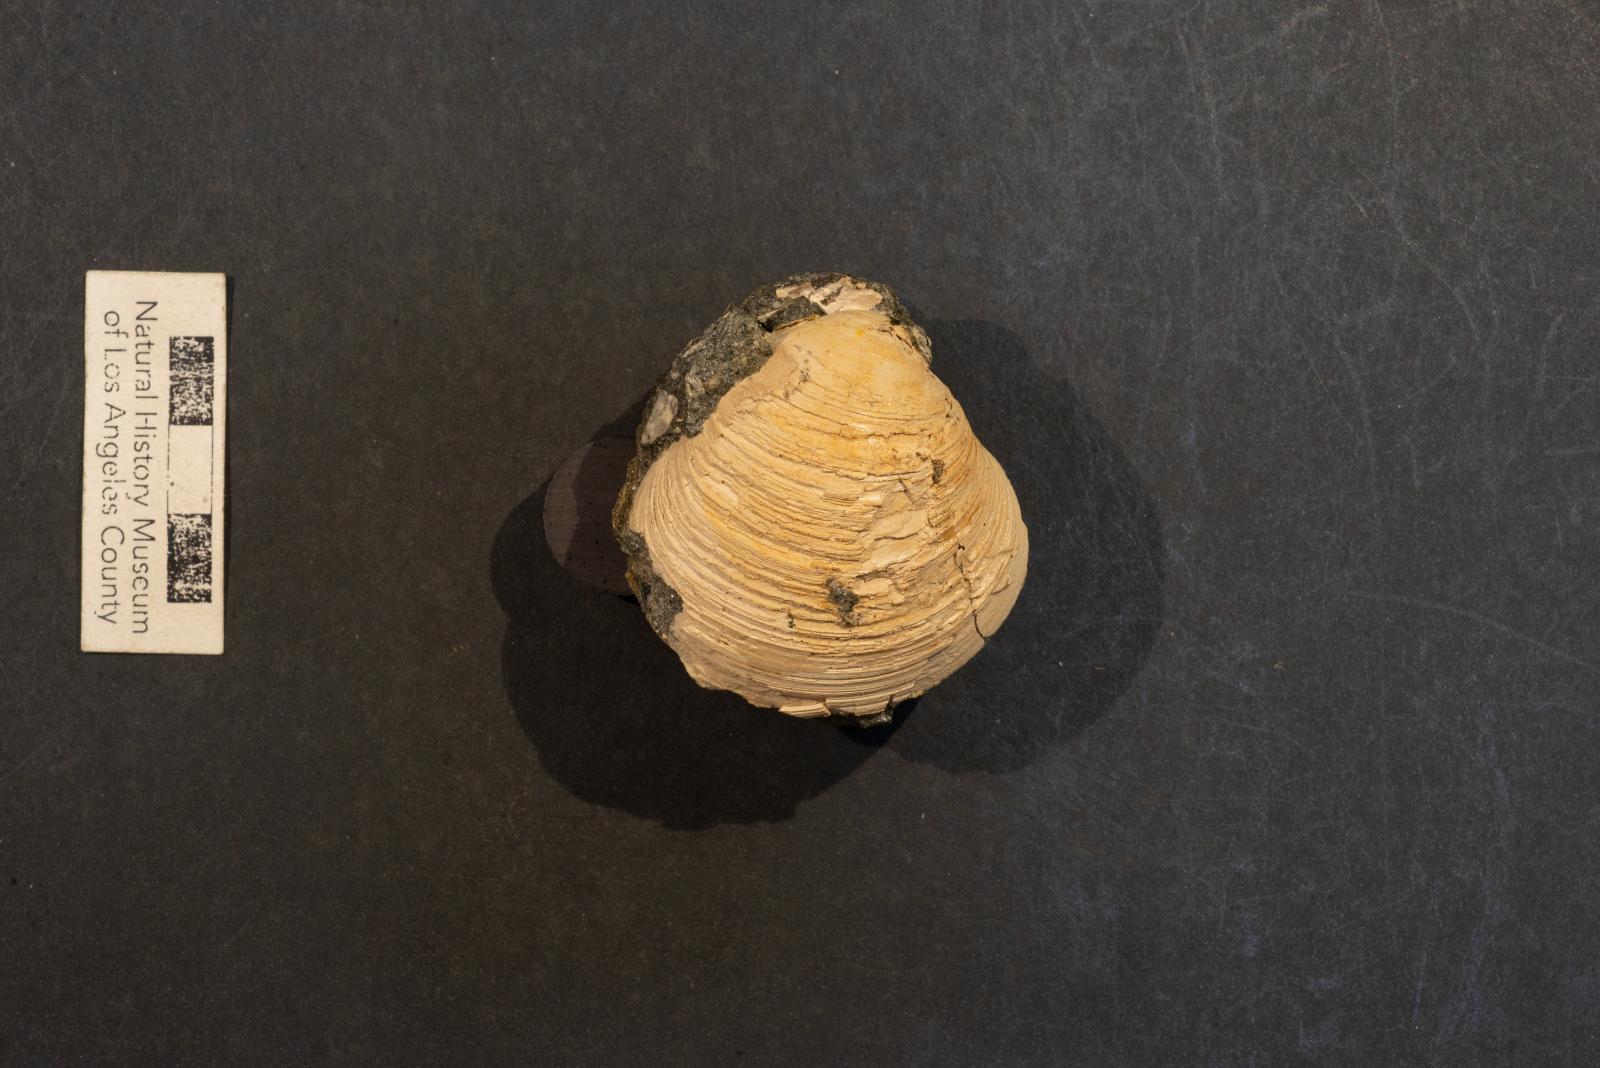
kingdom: Animalia
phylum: Mollusca
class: Bivalvia
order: Venerida
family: Veneridae
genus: Calva
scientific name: Calva Trigonocallista taffi
